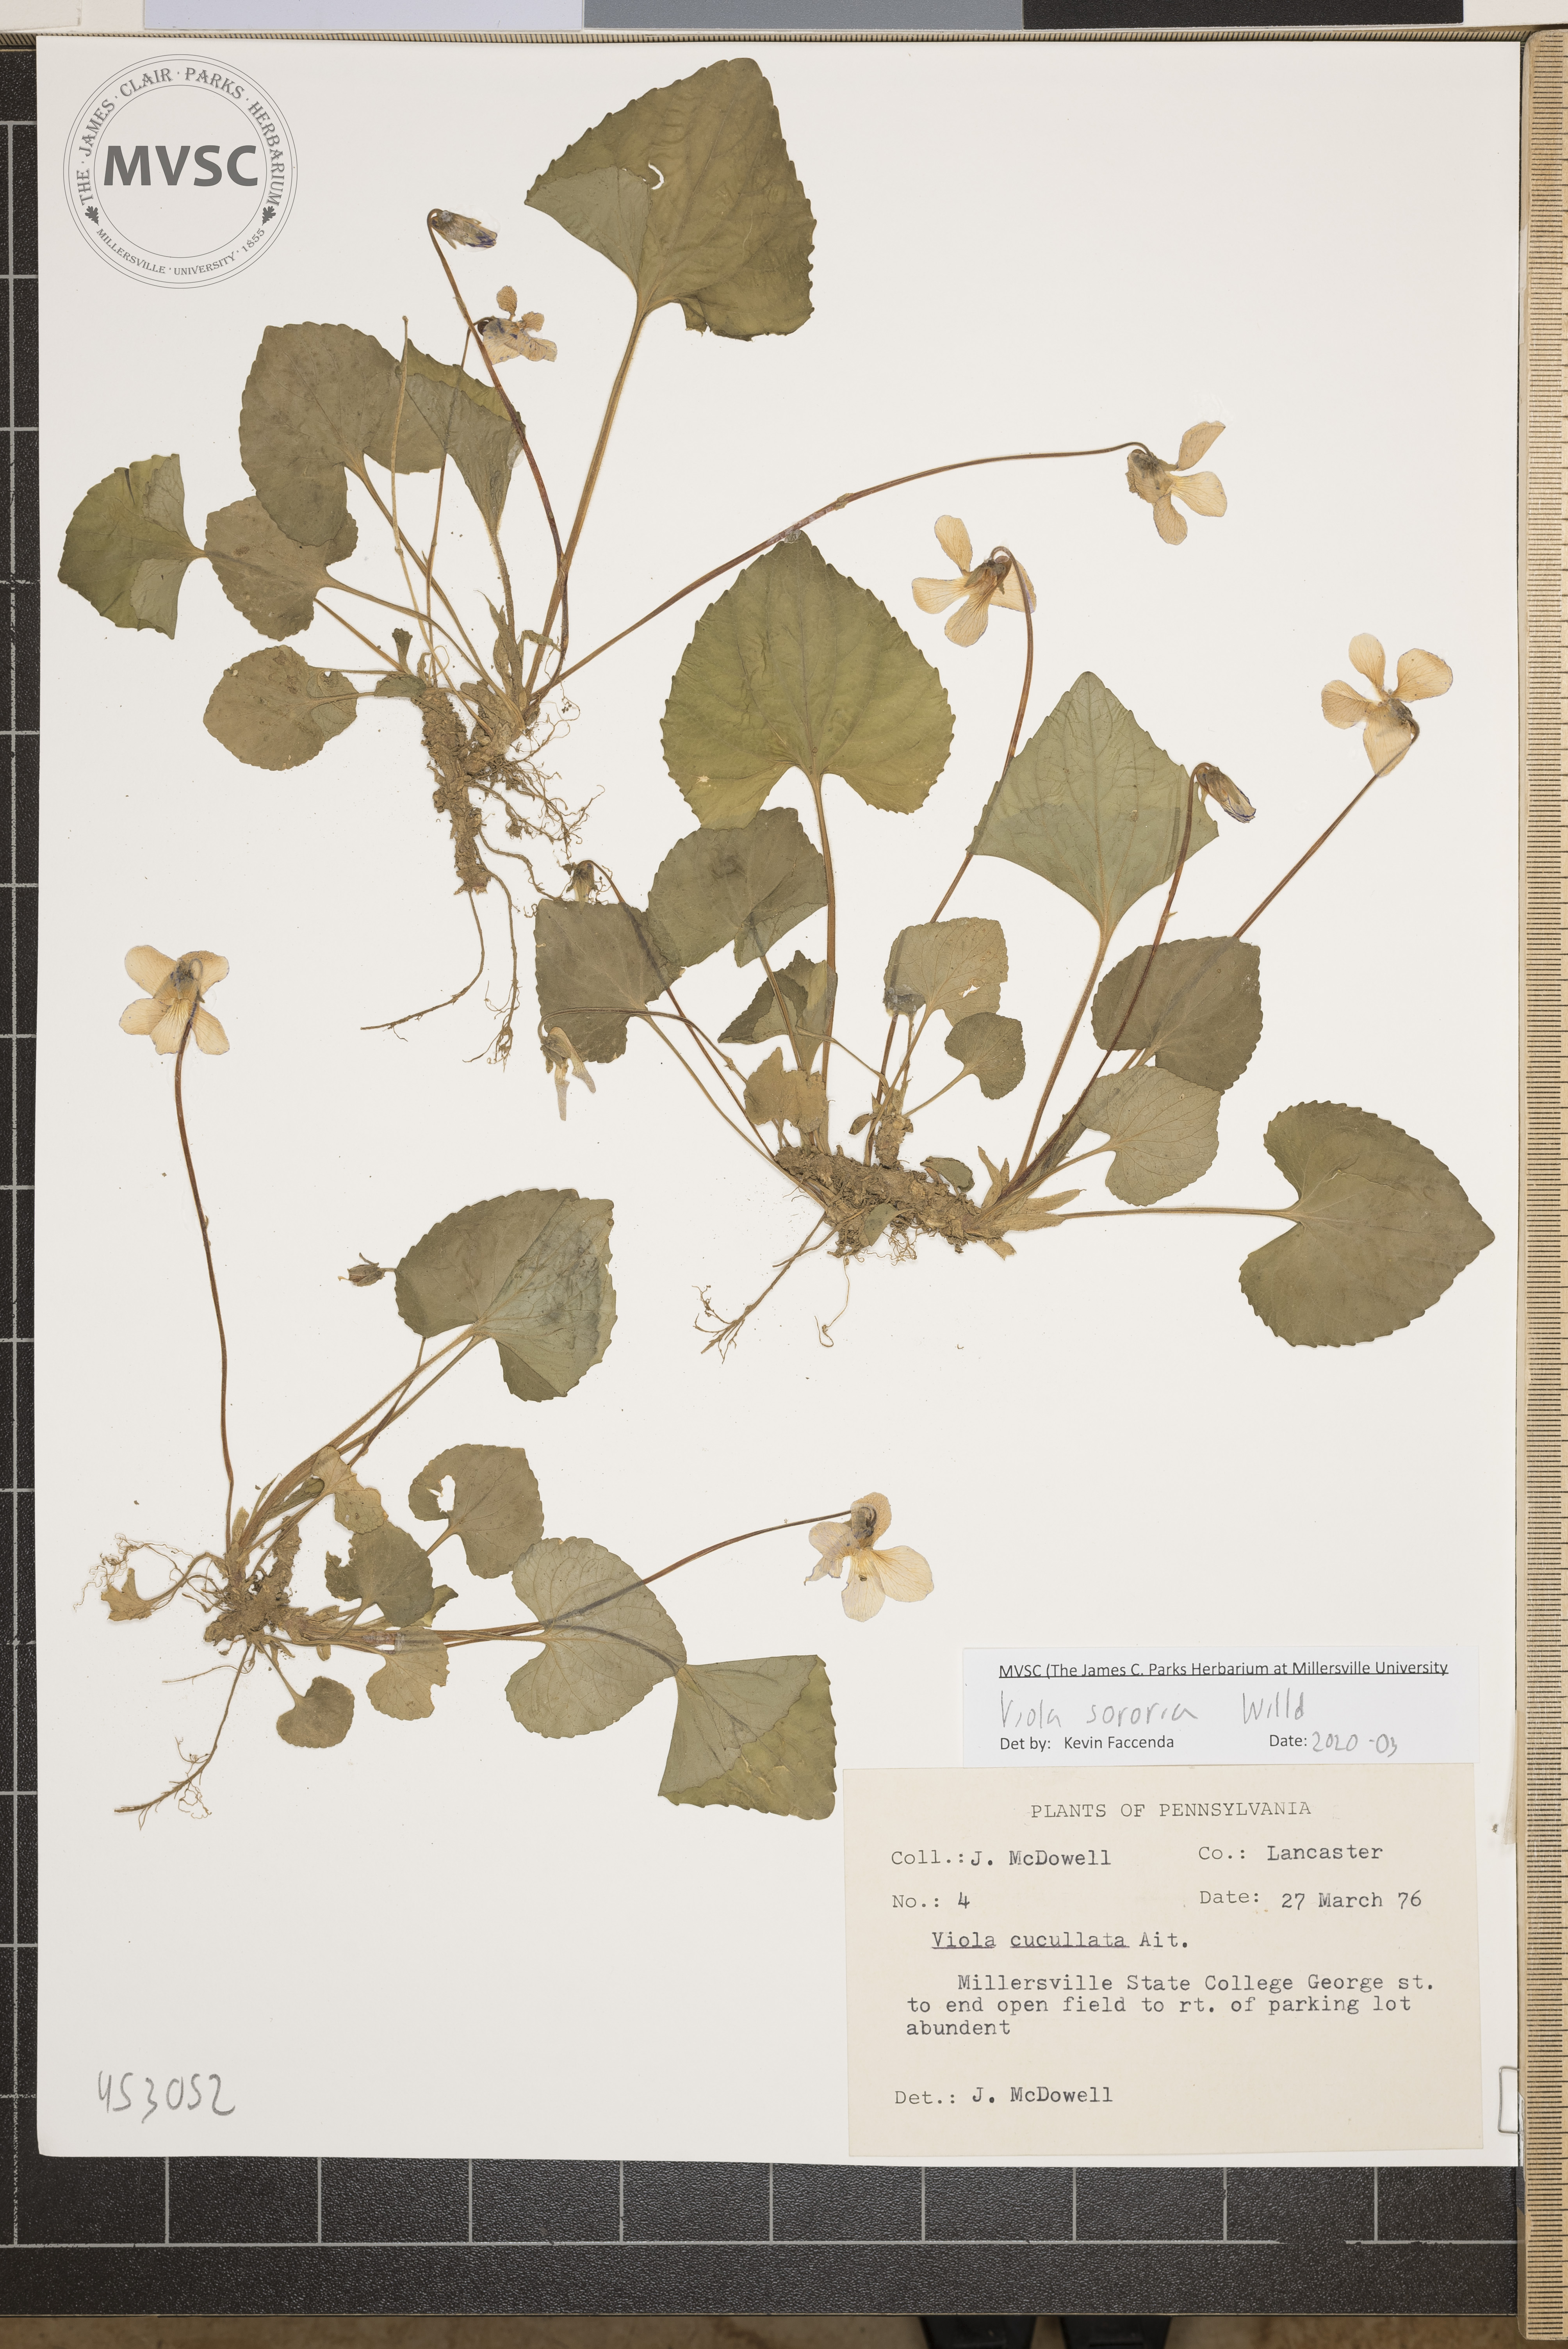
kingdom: Plantae
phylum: Tracheophyta
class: Magnoliopsida
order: Malpighiales
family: Violaceae
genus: Viola
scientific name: Viola sororia
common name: Dooryard violet
